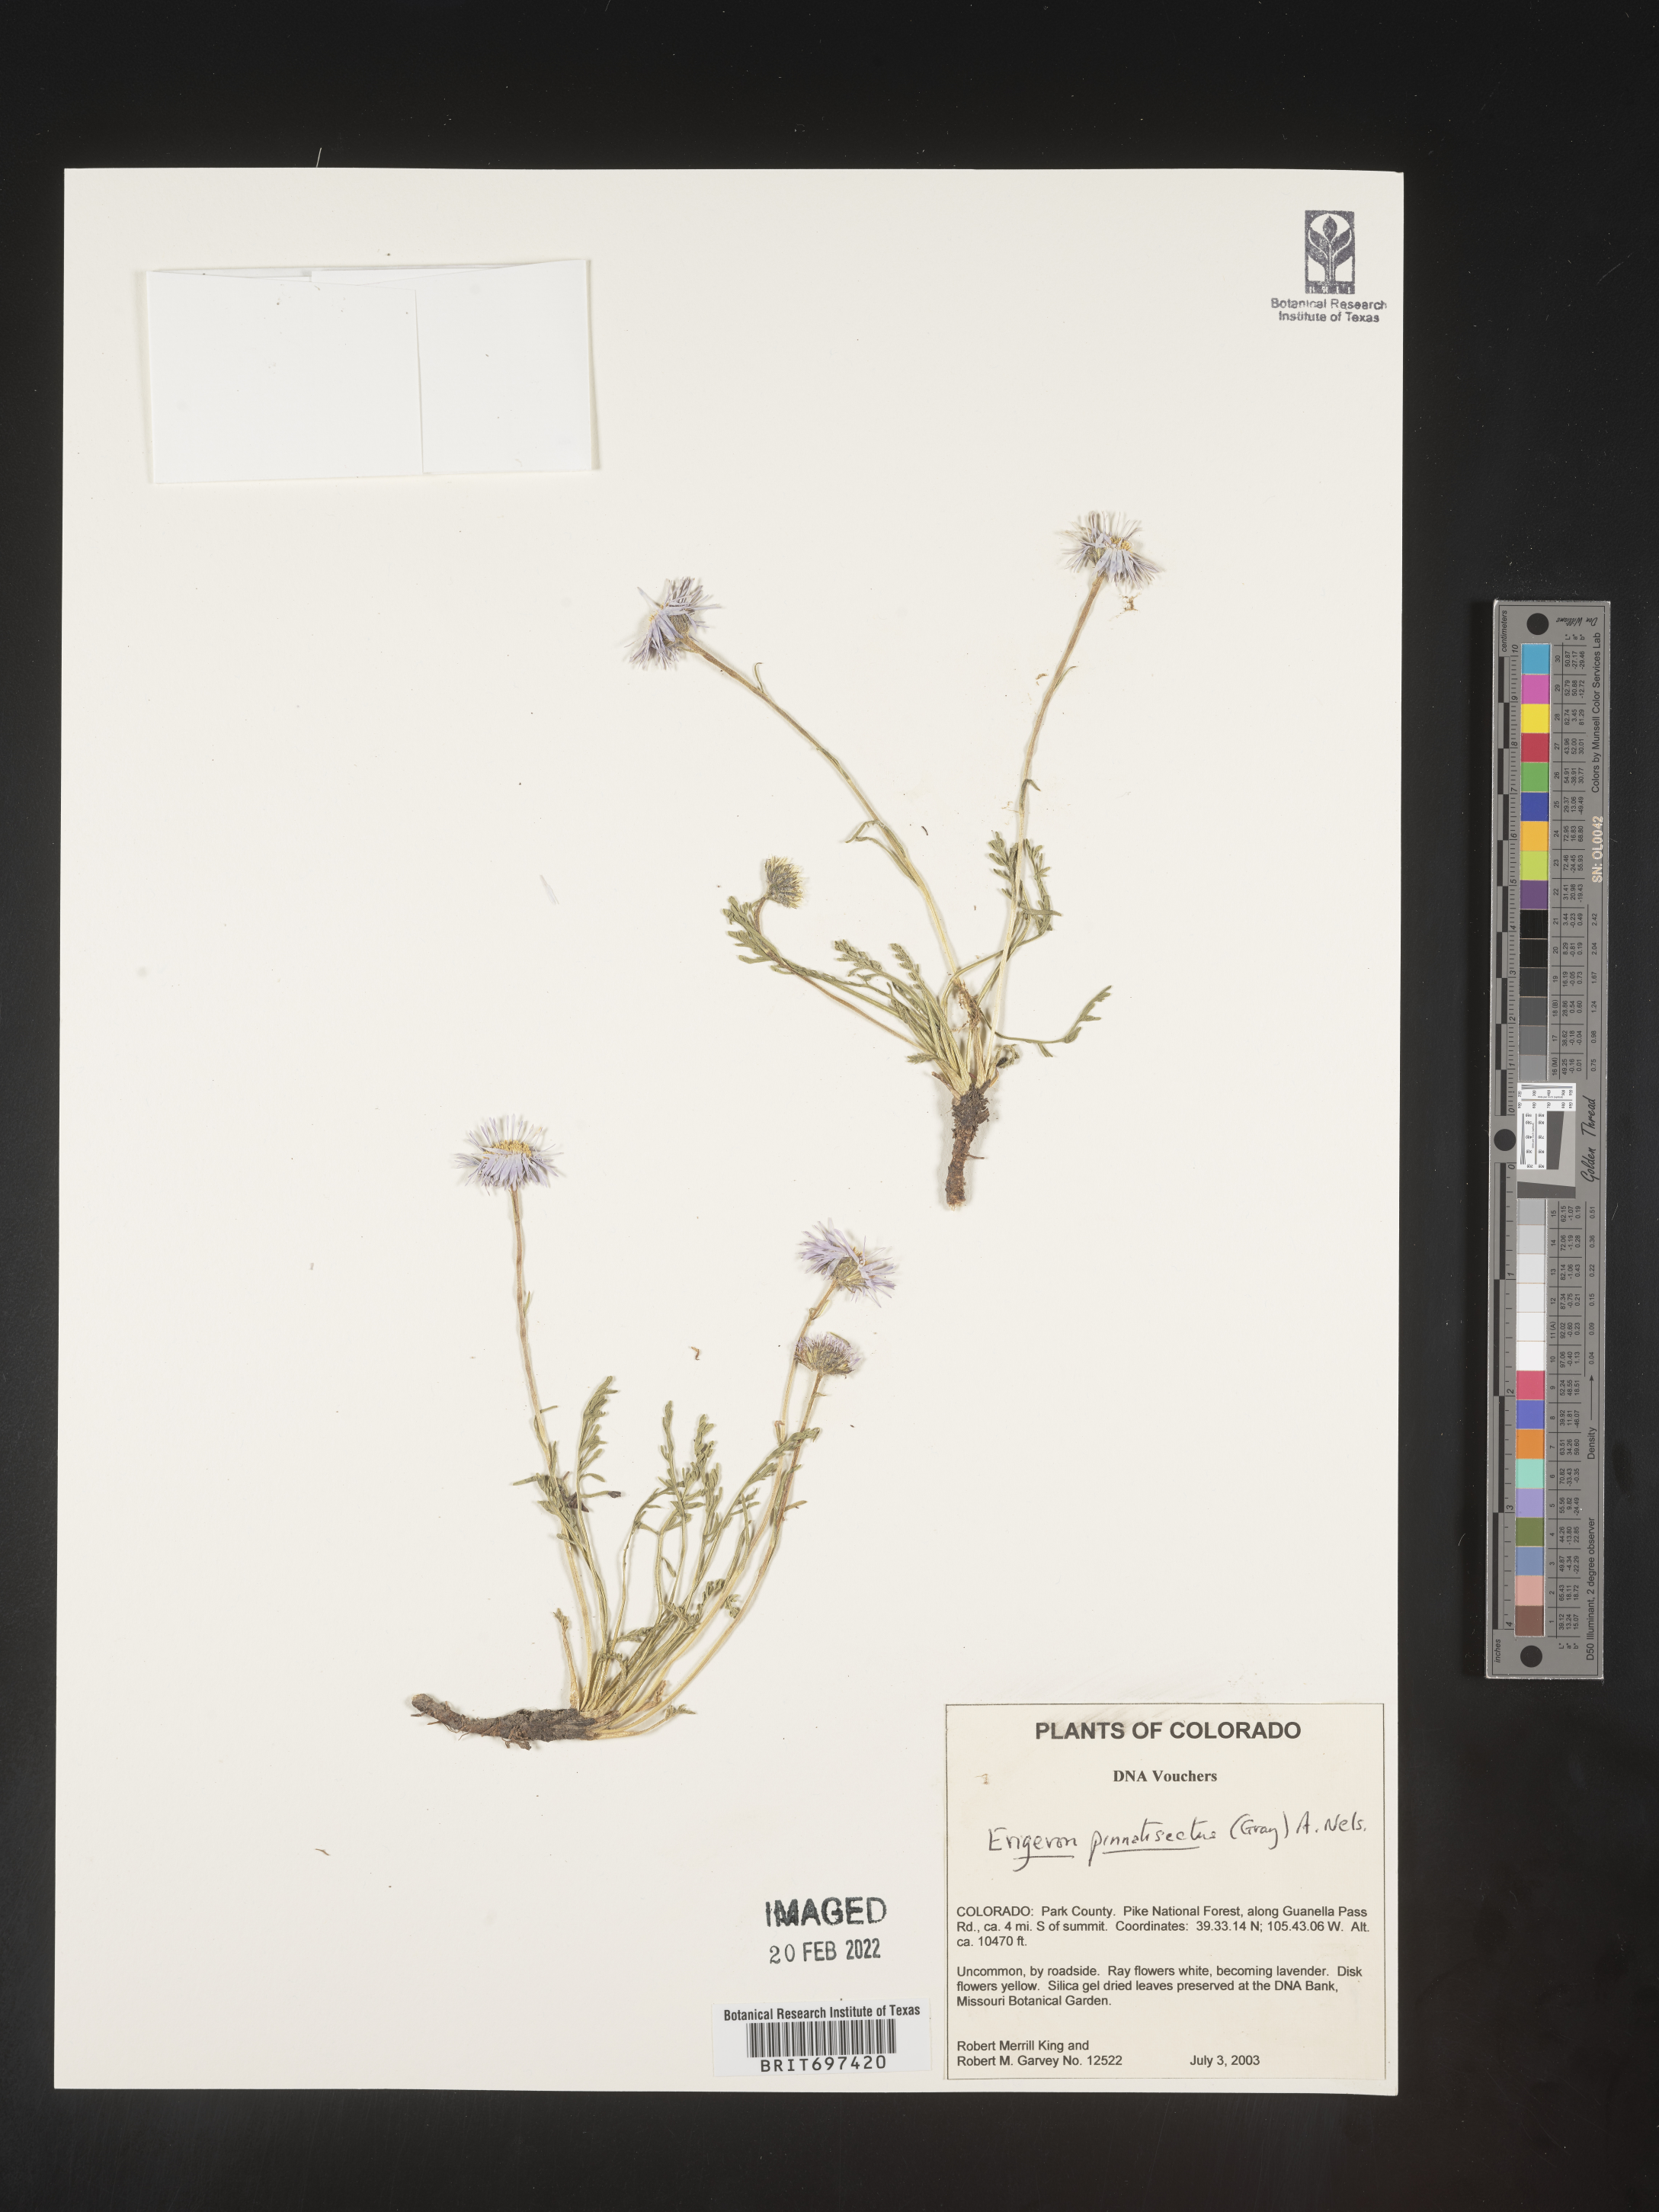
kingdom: Plantae
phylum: Tracheophyta
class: Magnoliopsida
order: Asterales
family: Asteraceae
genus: Erigeron
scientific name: Erigeron pinnatisectus
